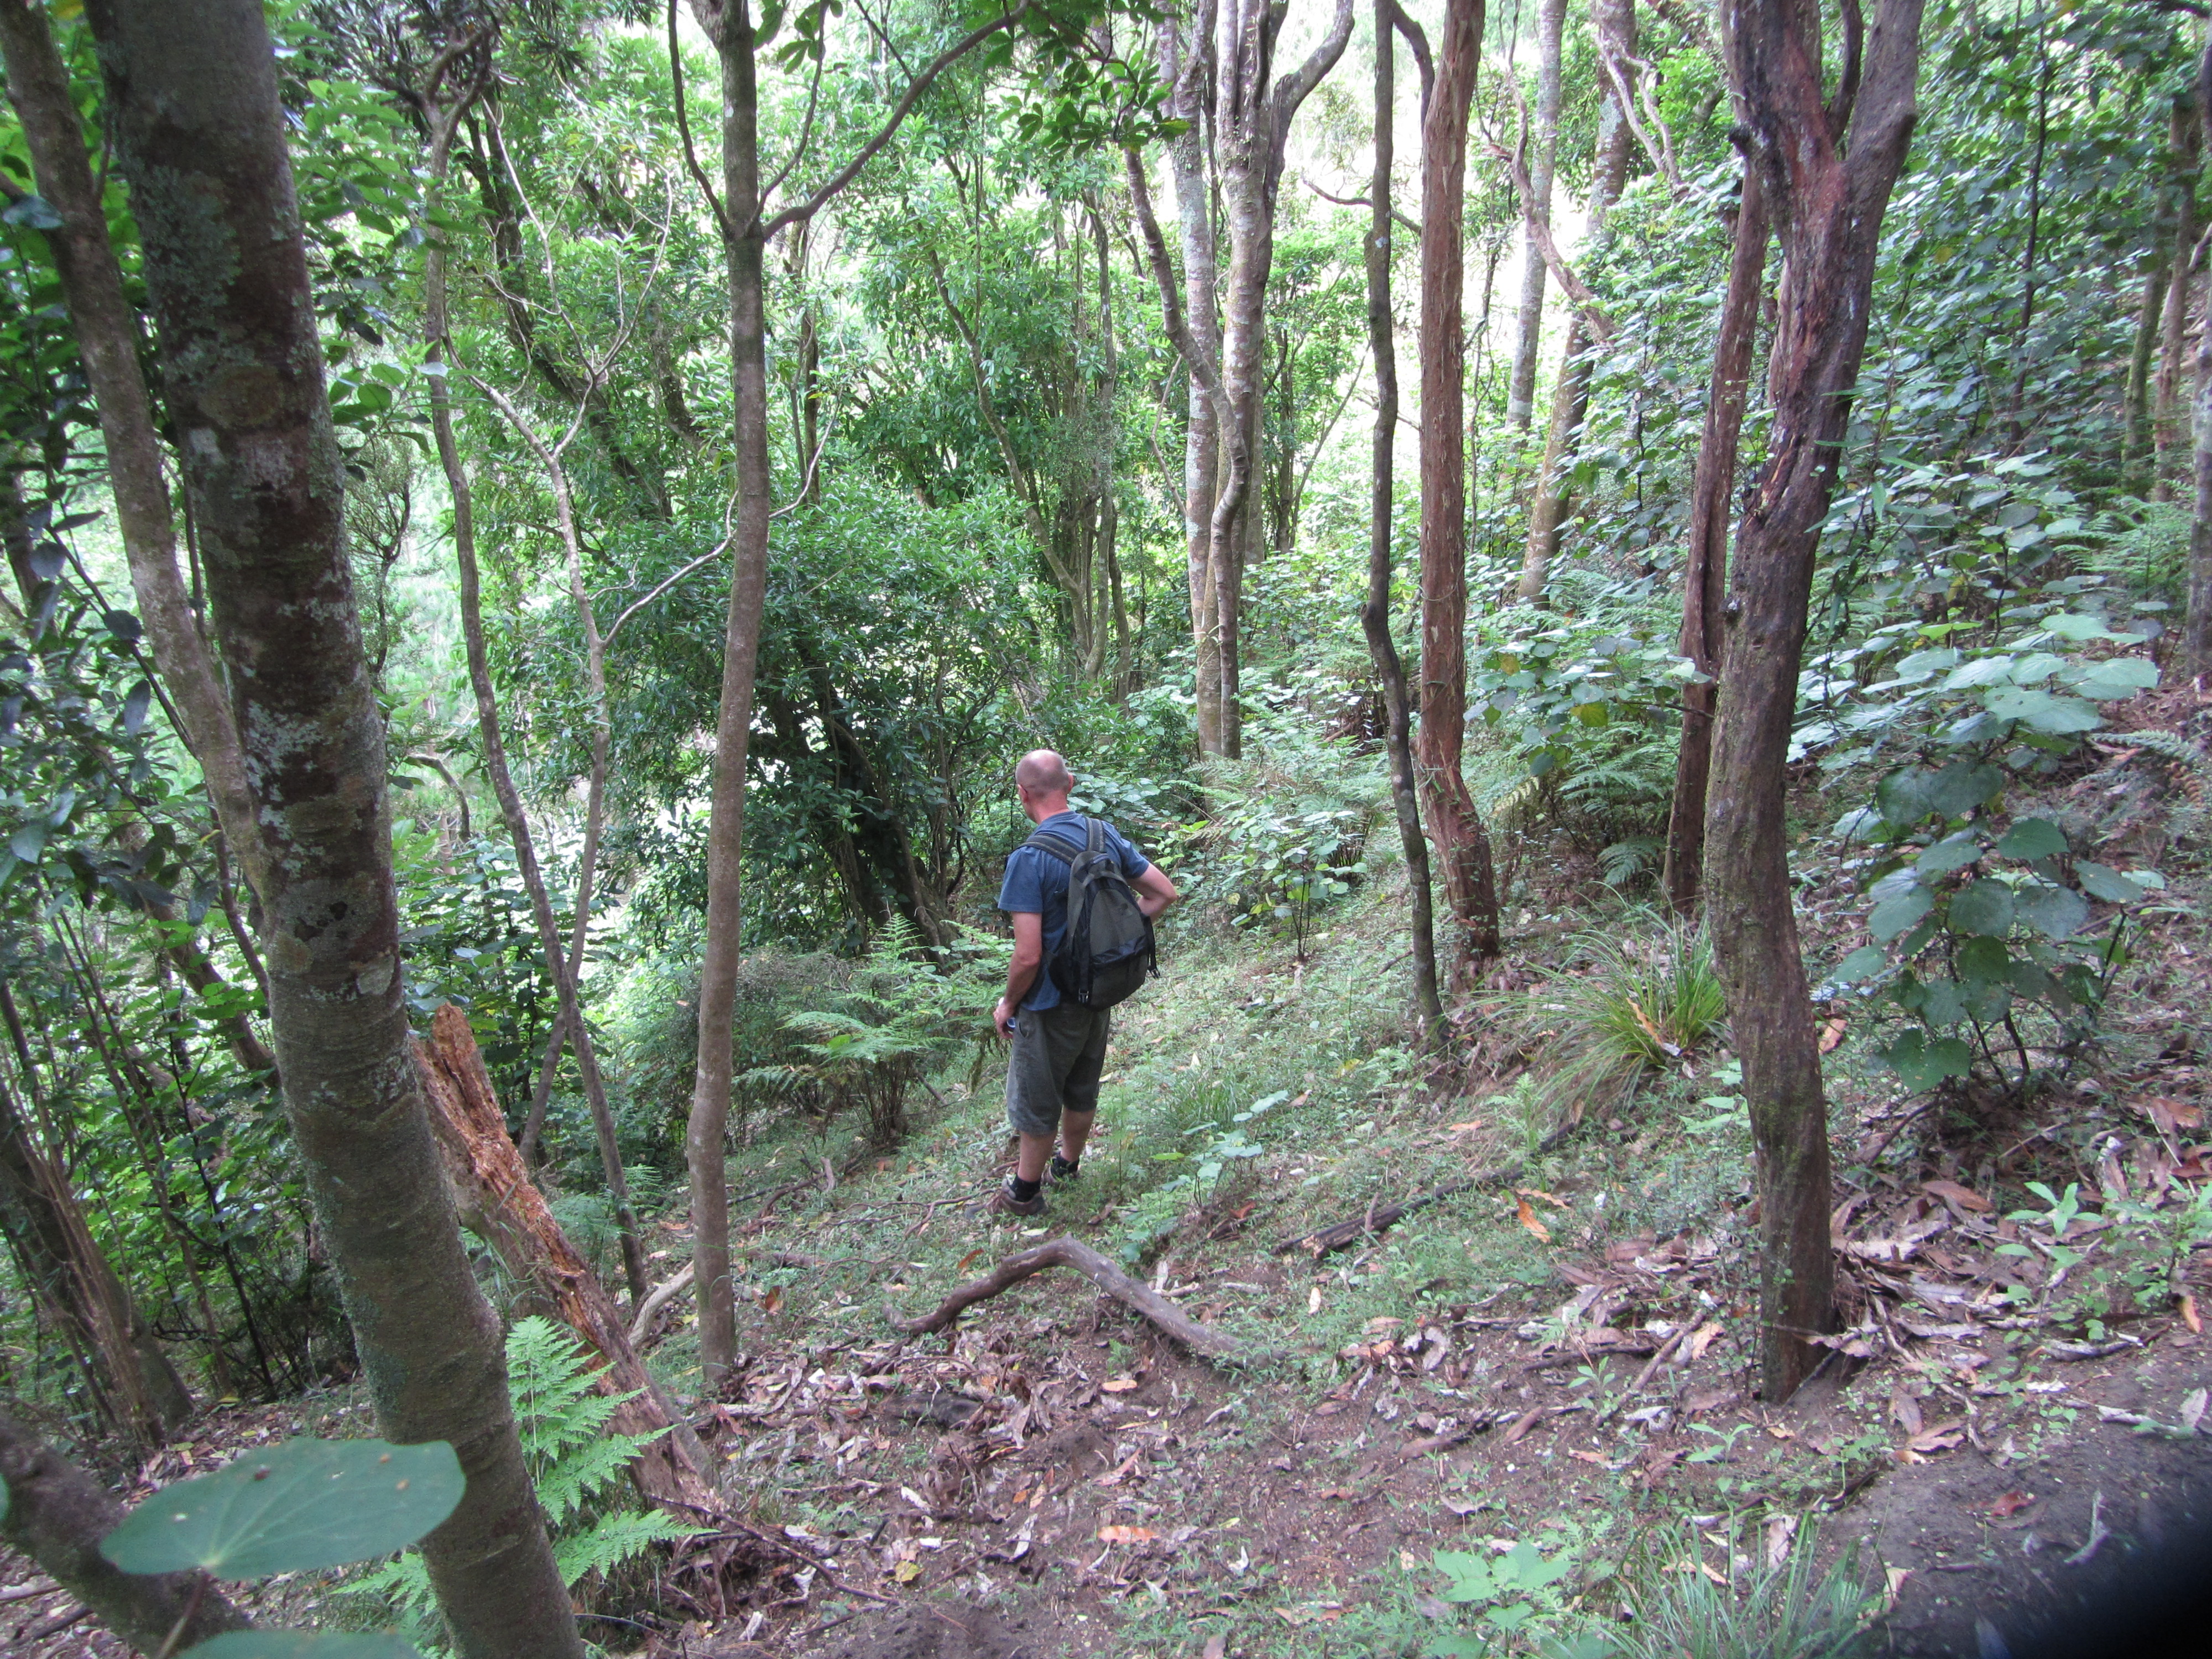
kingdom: Plantae
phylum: Tracheophyta
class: Liliopsida
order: Poales
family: Poaceae
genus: Oplismenus
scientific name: Oplismenus hirtellus
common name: Basketgrass
